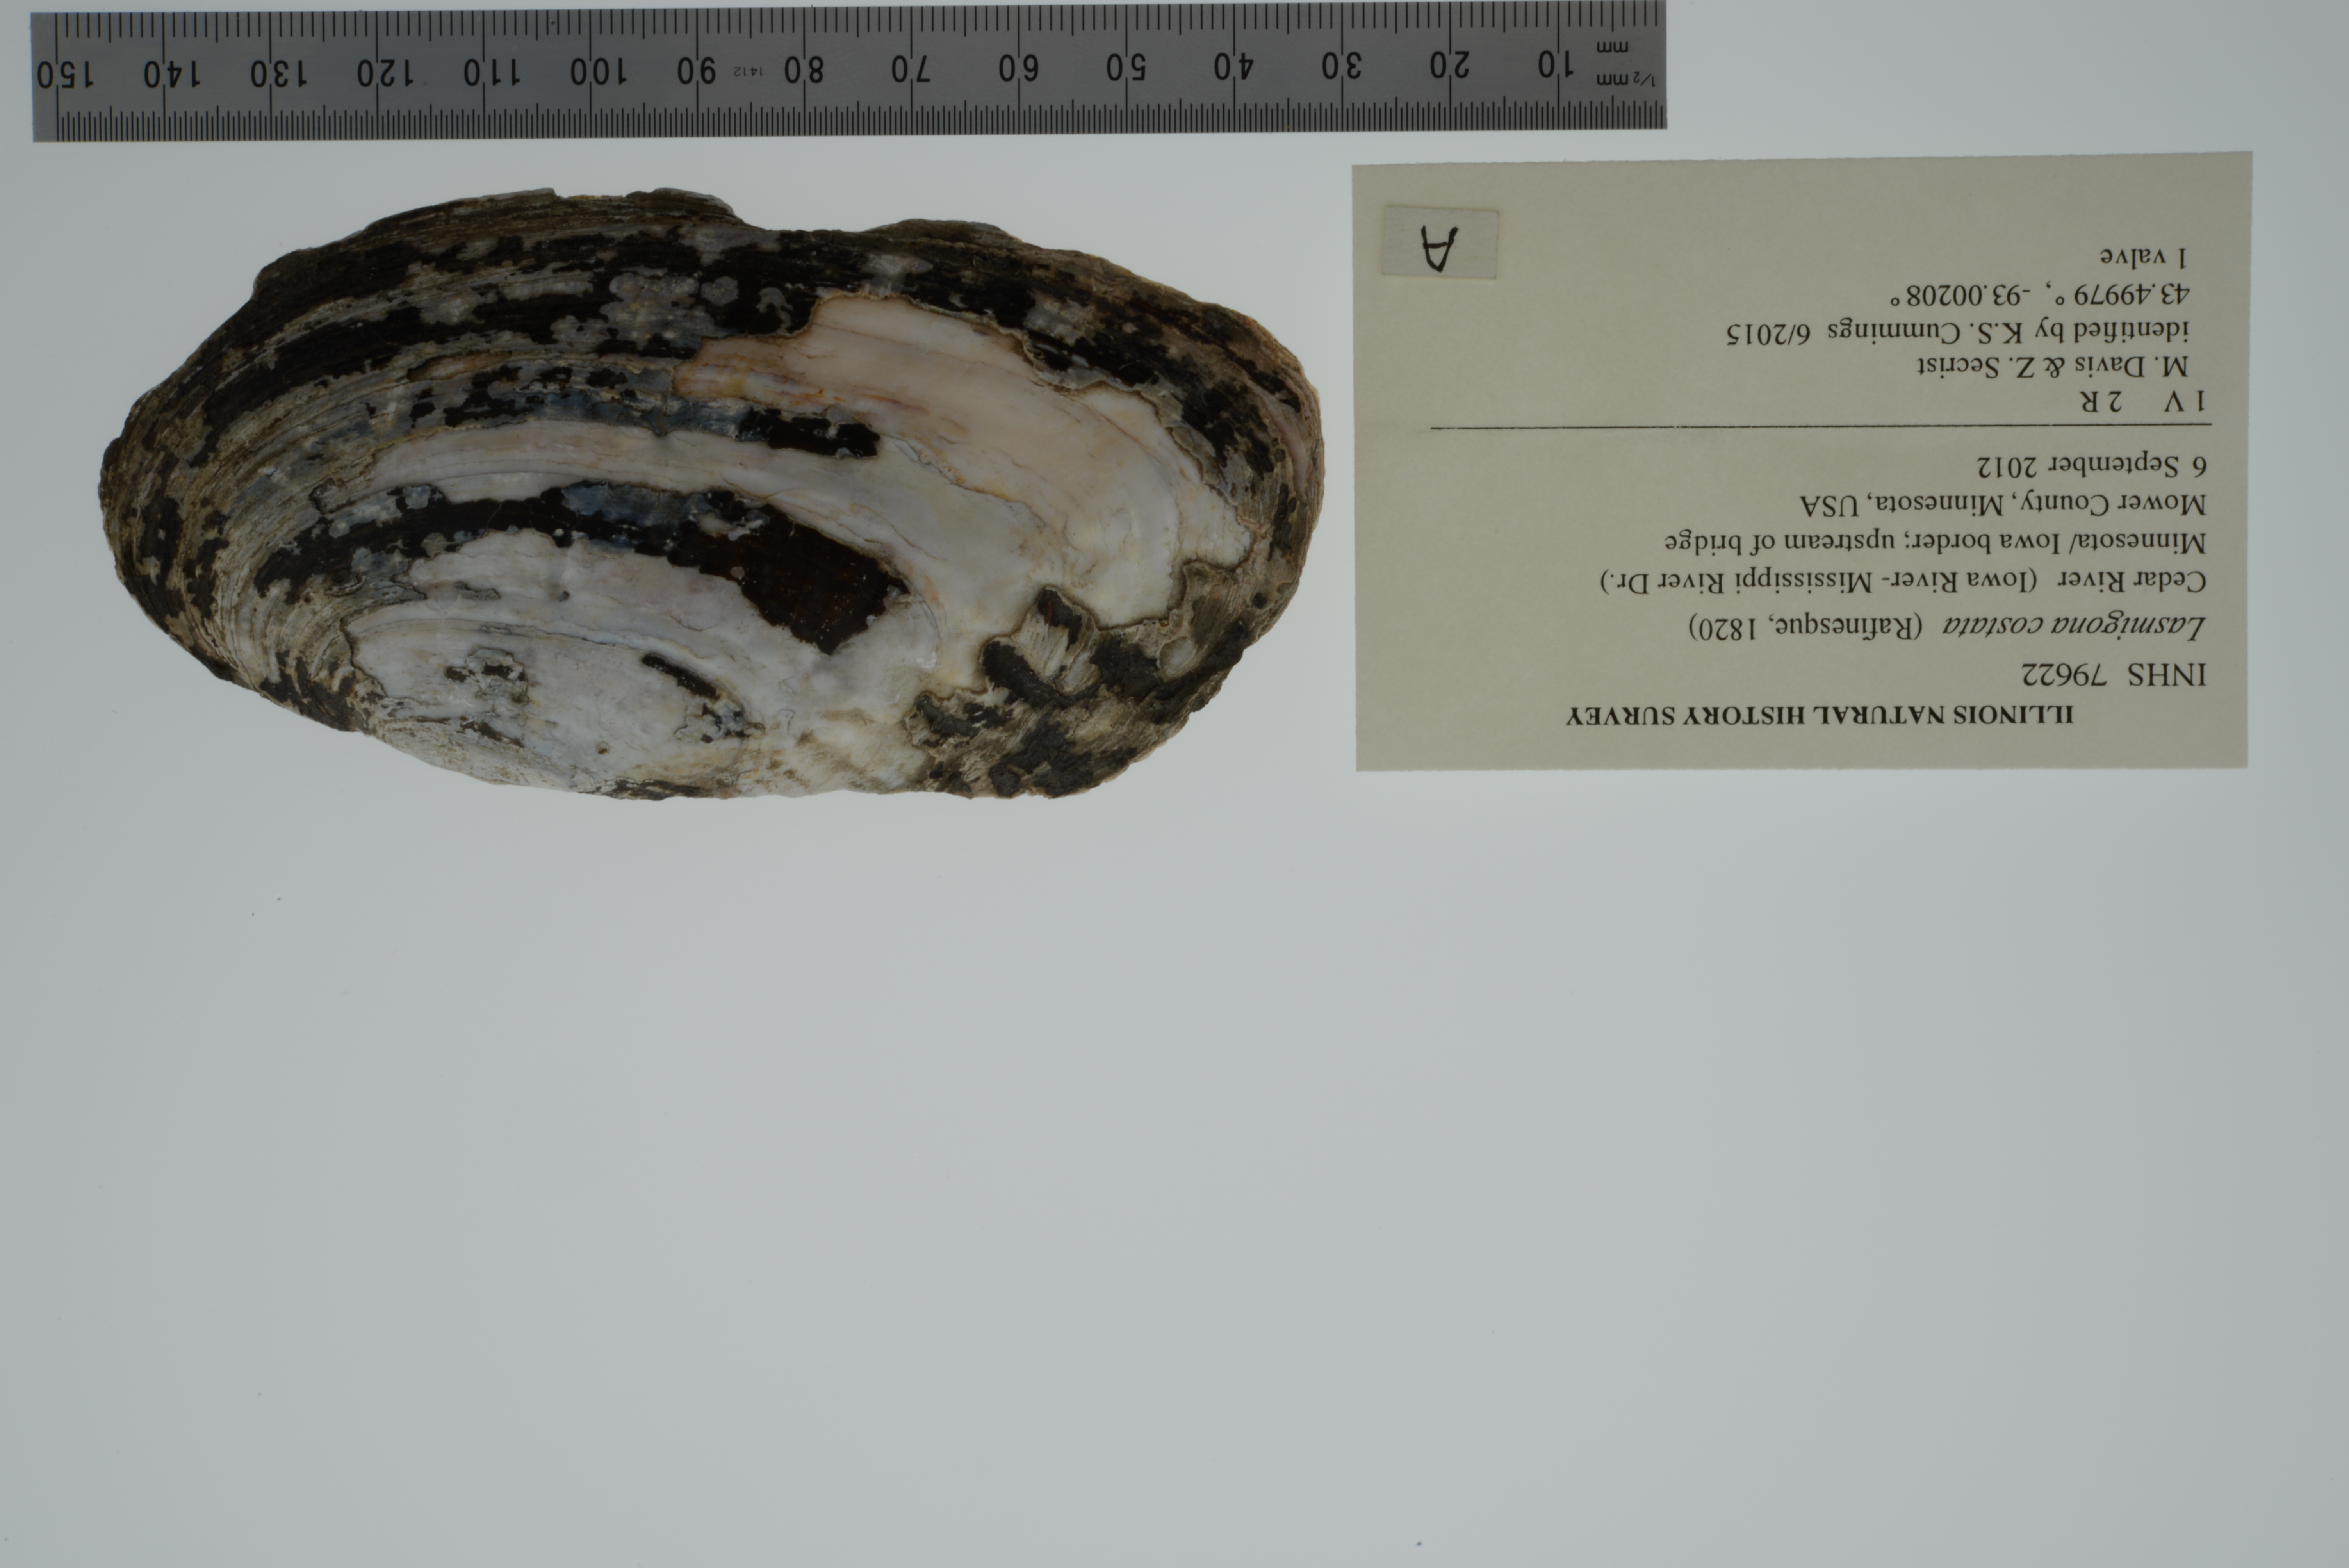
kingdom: Animalia
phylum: Mollusca
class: Bivalvia
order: Unionida
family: Unionidae
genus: Lasmigona
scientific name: Lasmigona costata
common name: Flutedshell
